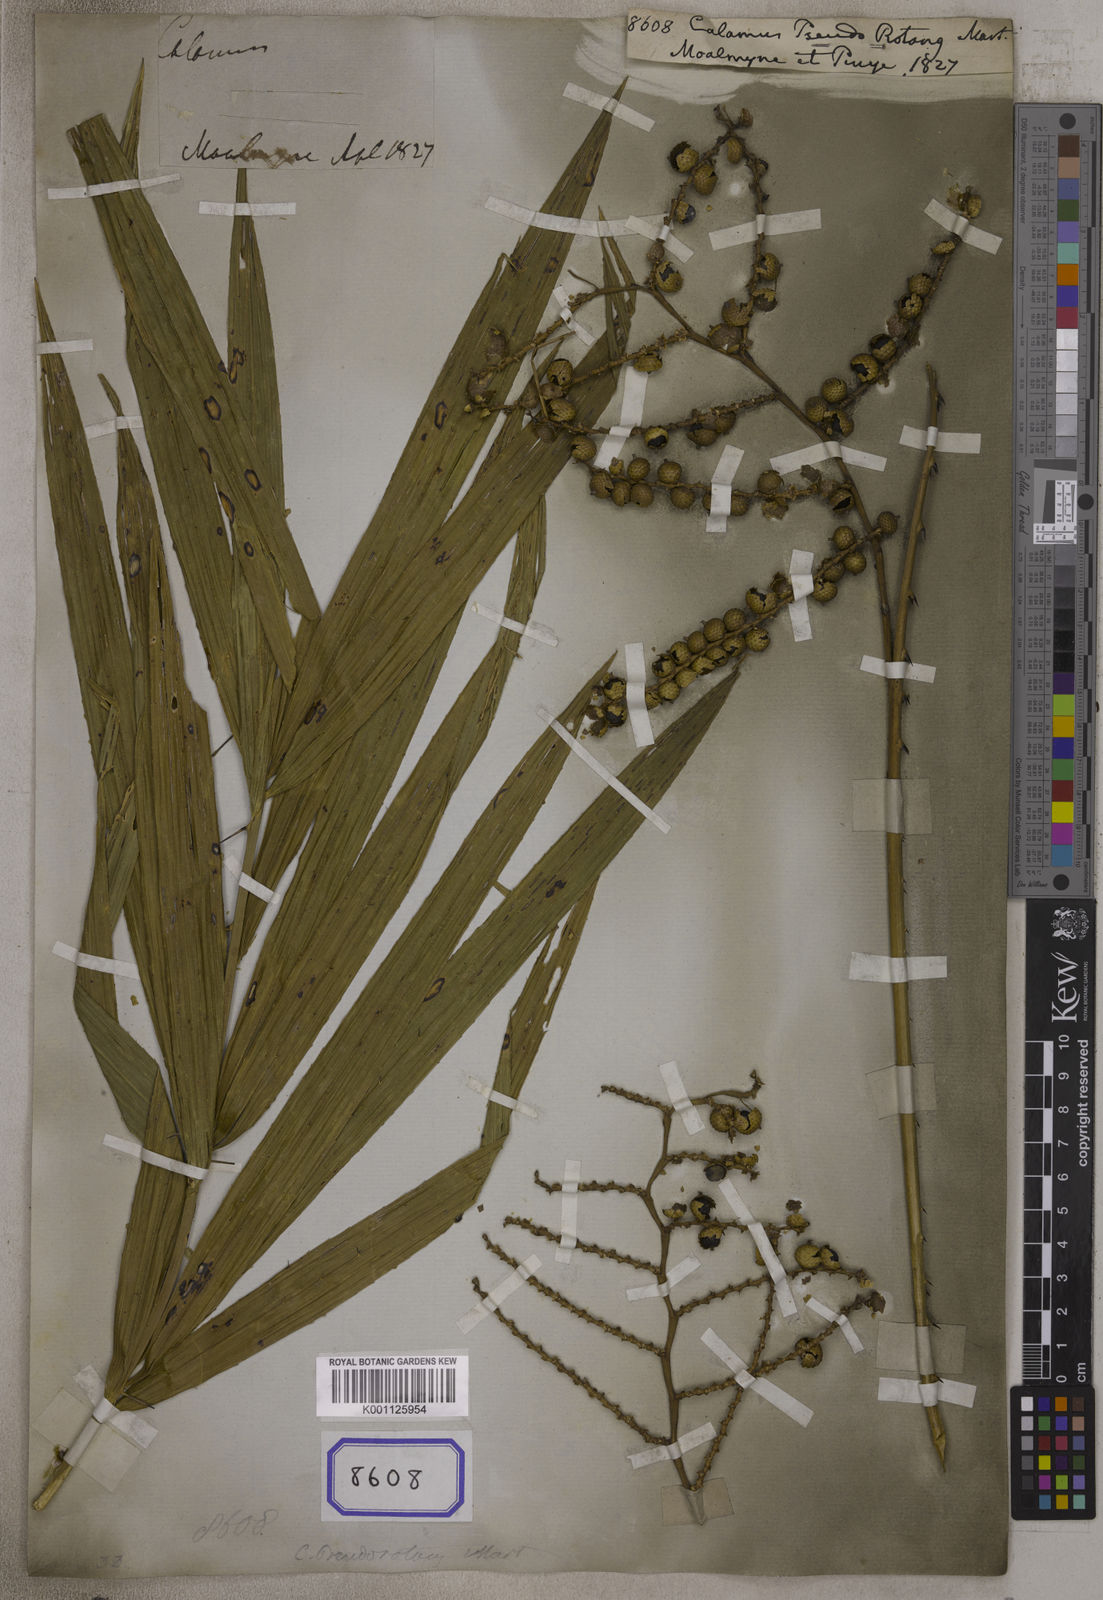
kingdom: Plantae
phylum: Tracheophyta
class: Liliopsida
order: Arecales
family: Arecaceae
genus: Calamus
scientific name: Calamus
